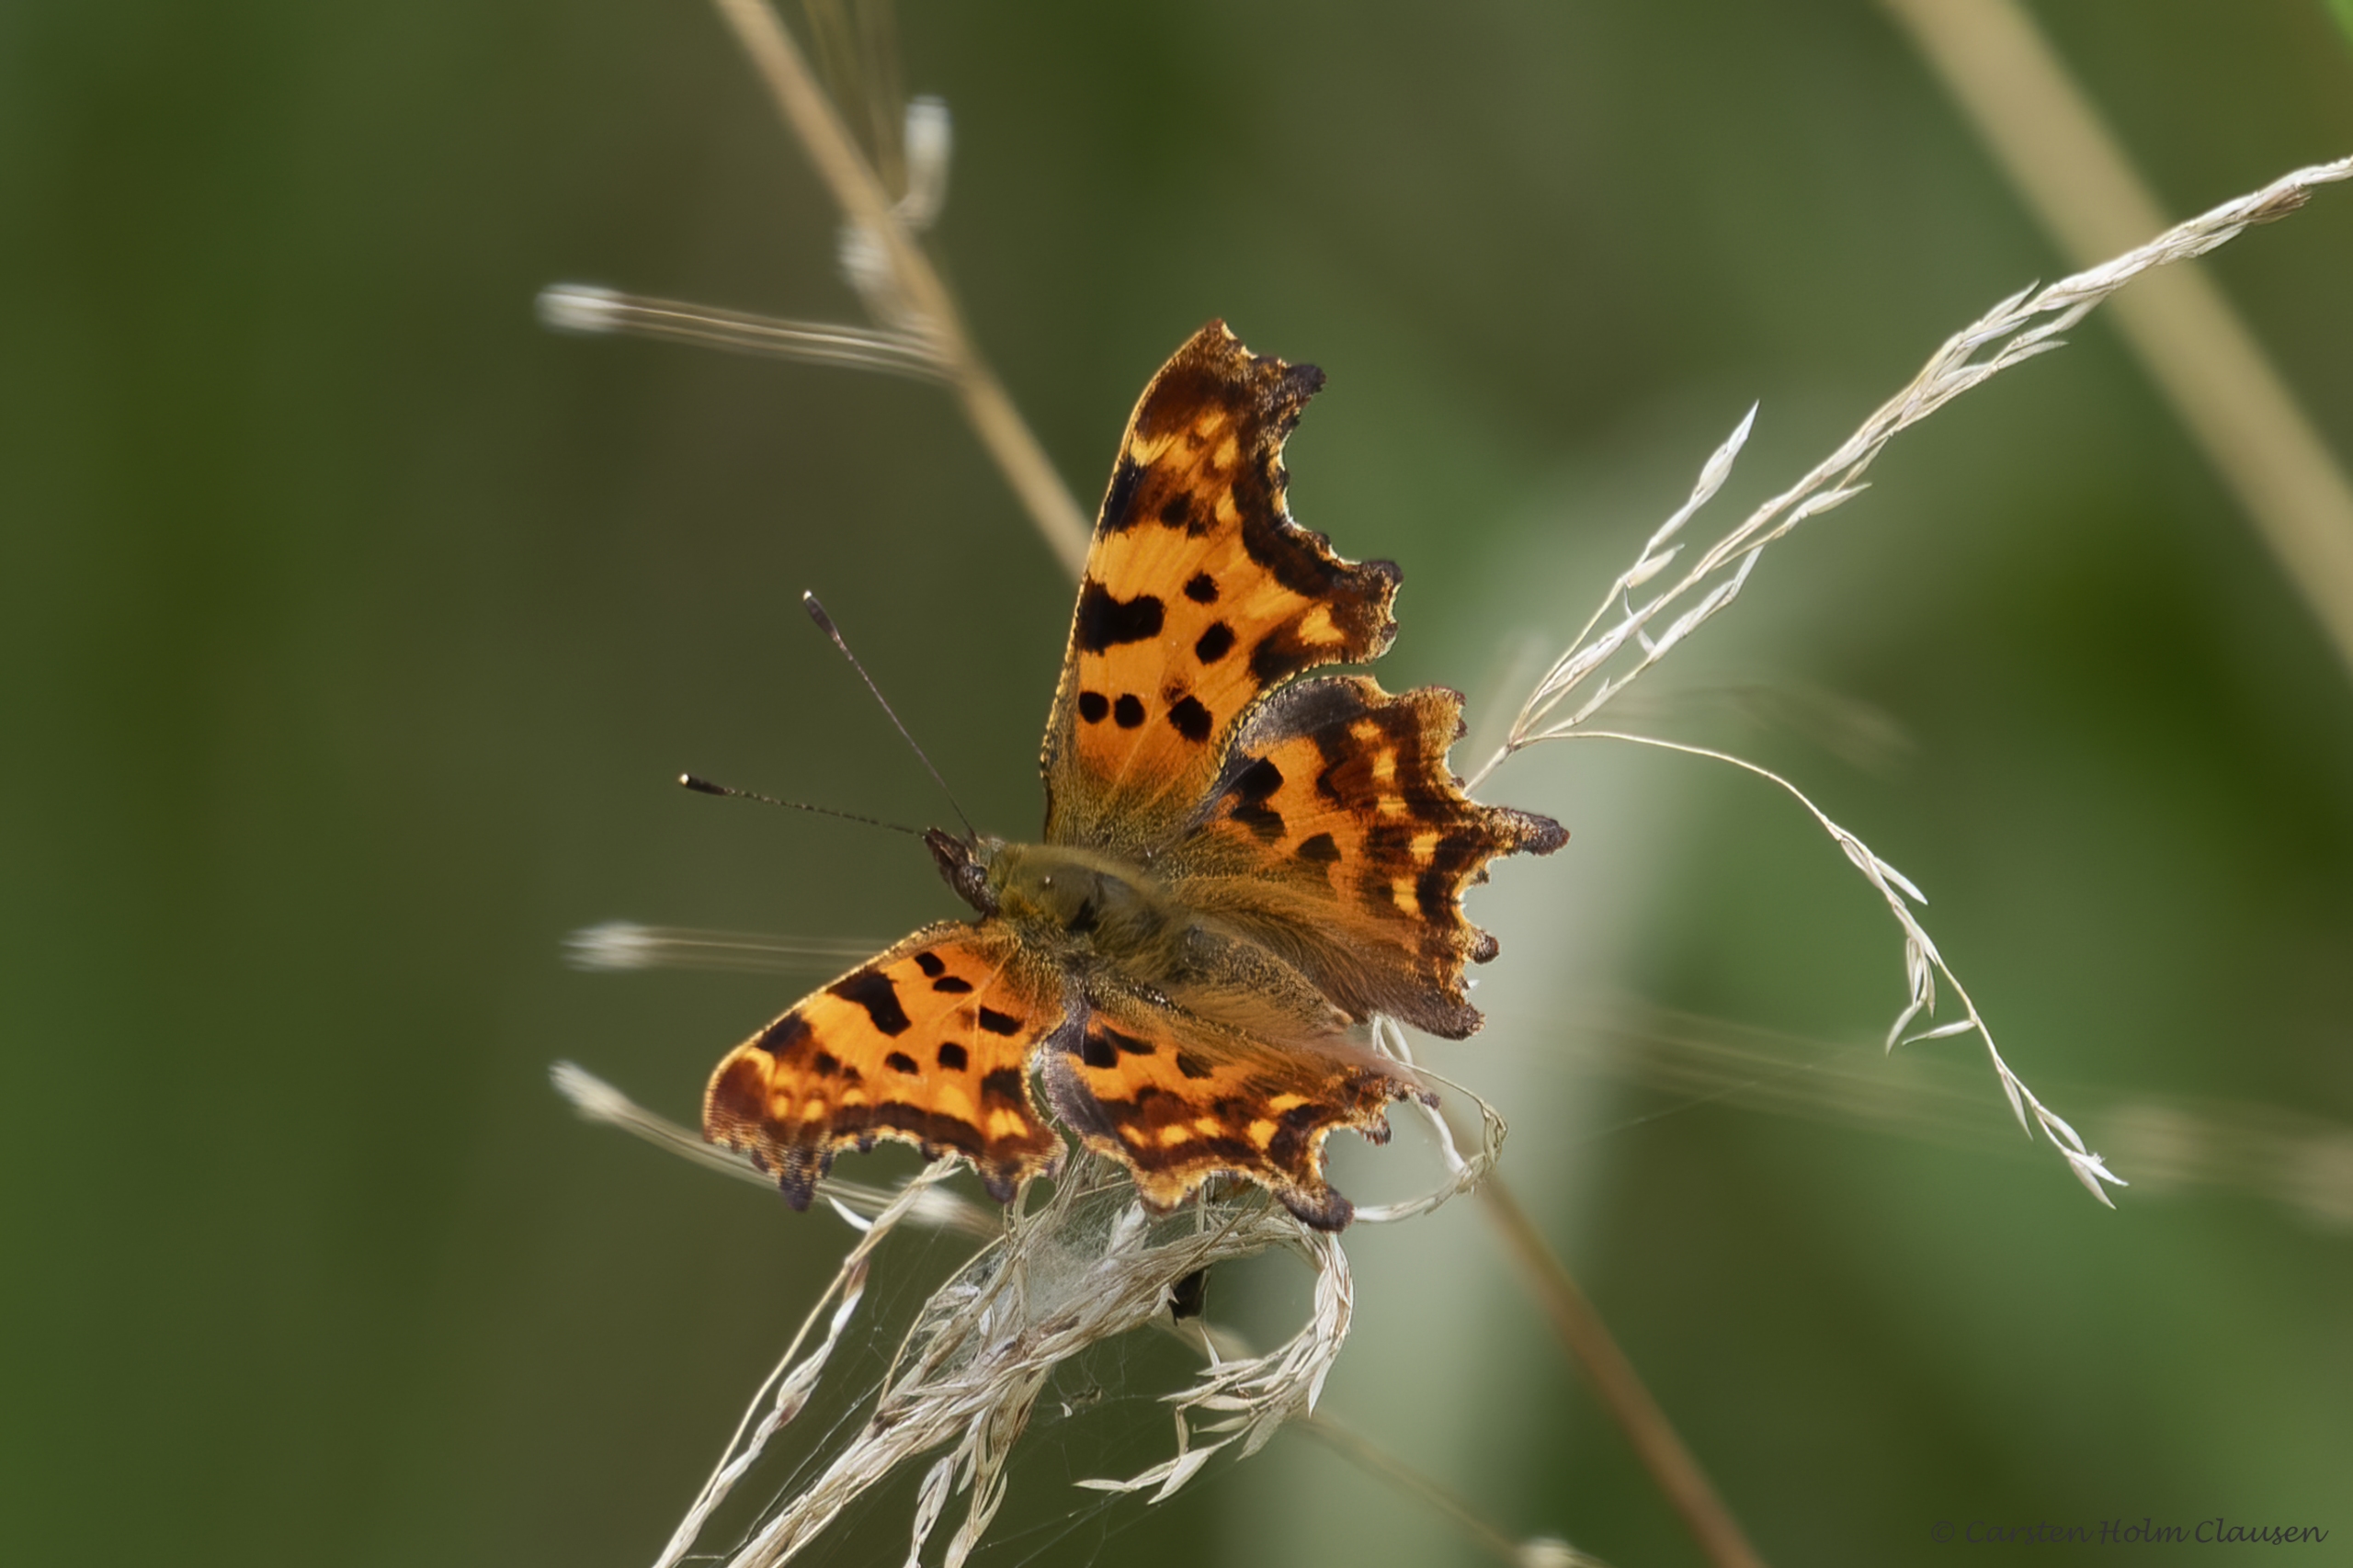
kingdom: Animalia
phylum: Arthropoda
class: Insecta
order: Lepidoptera
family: Nymphalidae
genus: Polygonia
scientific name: Polygonia c-album
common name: Det hvide C
